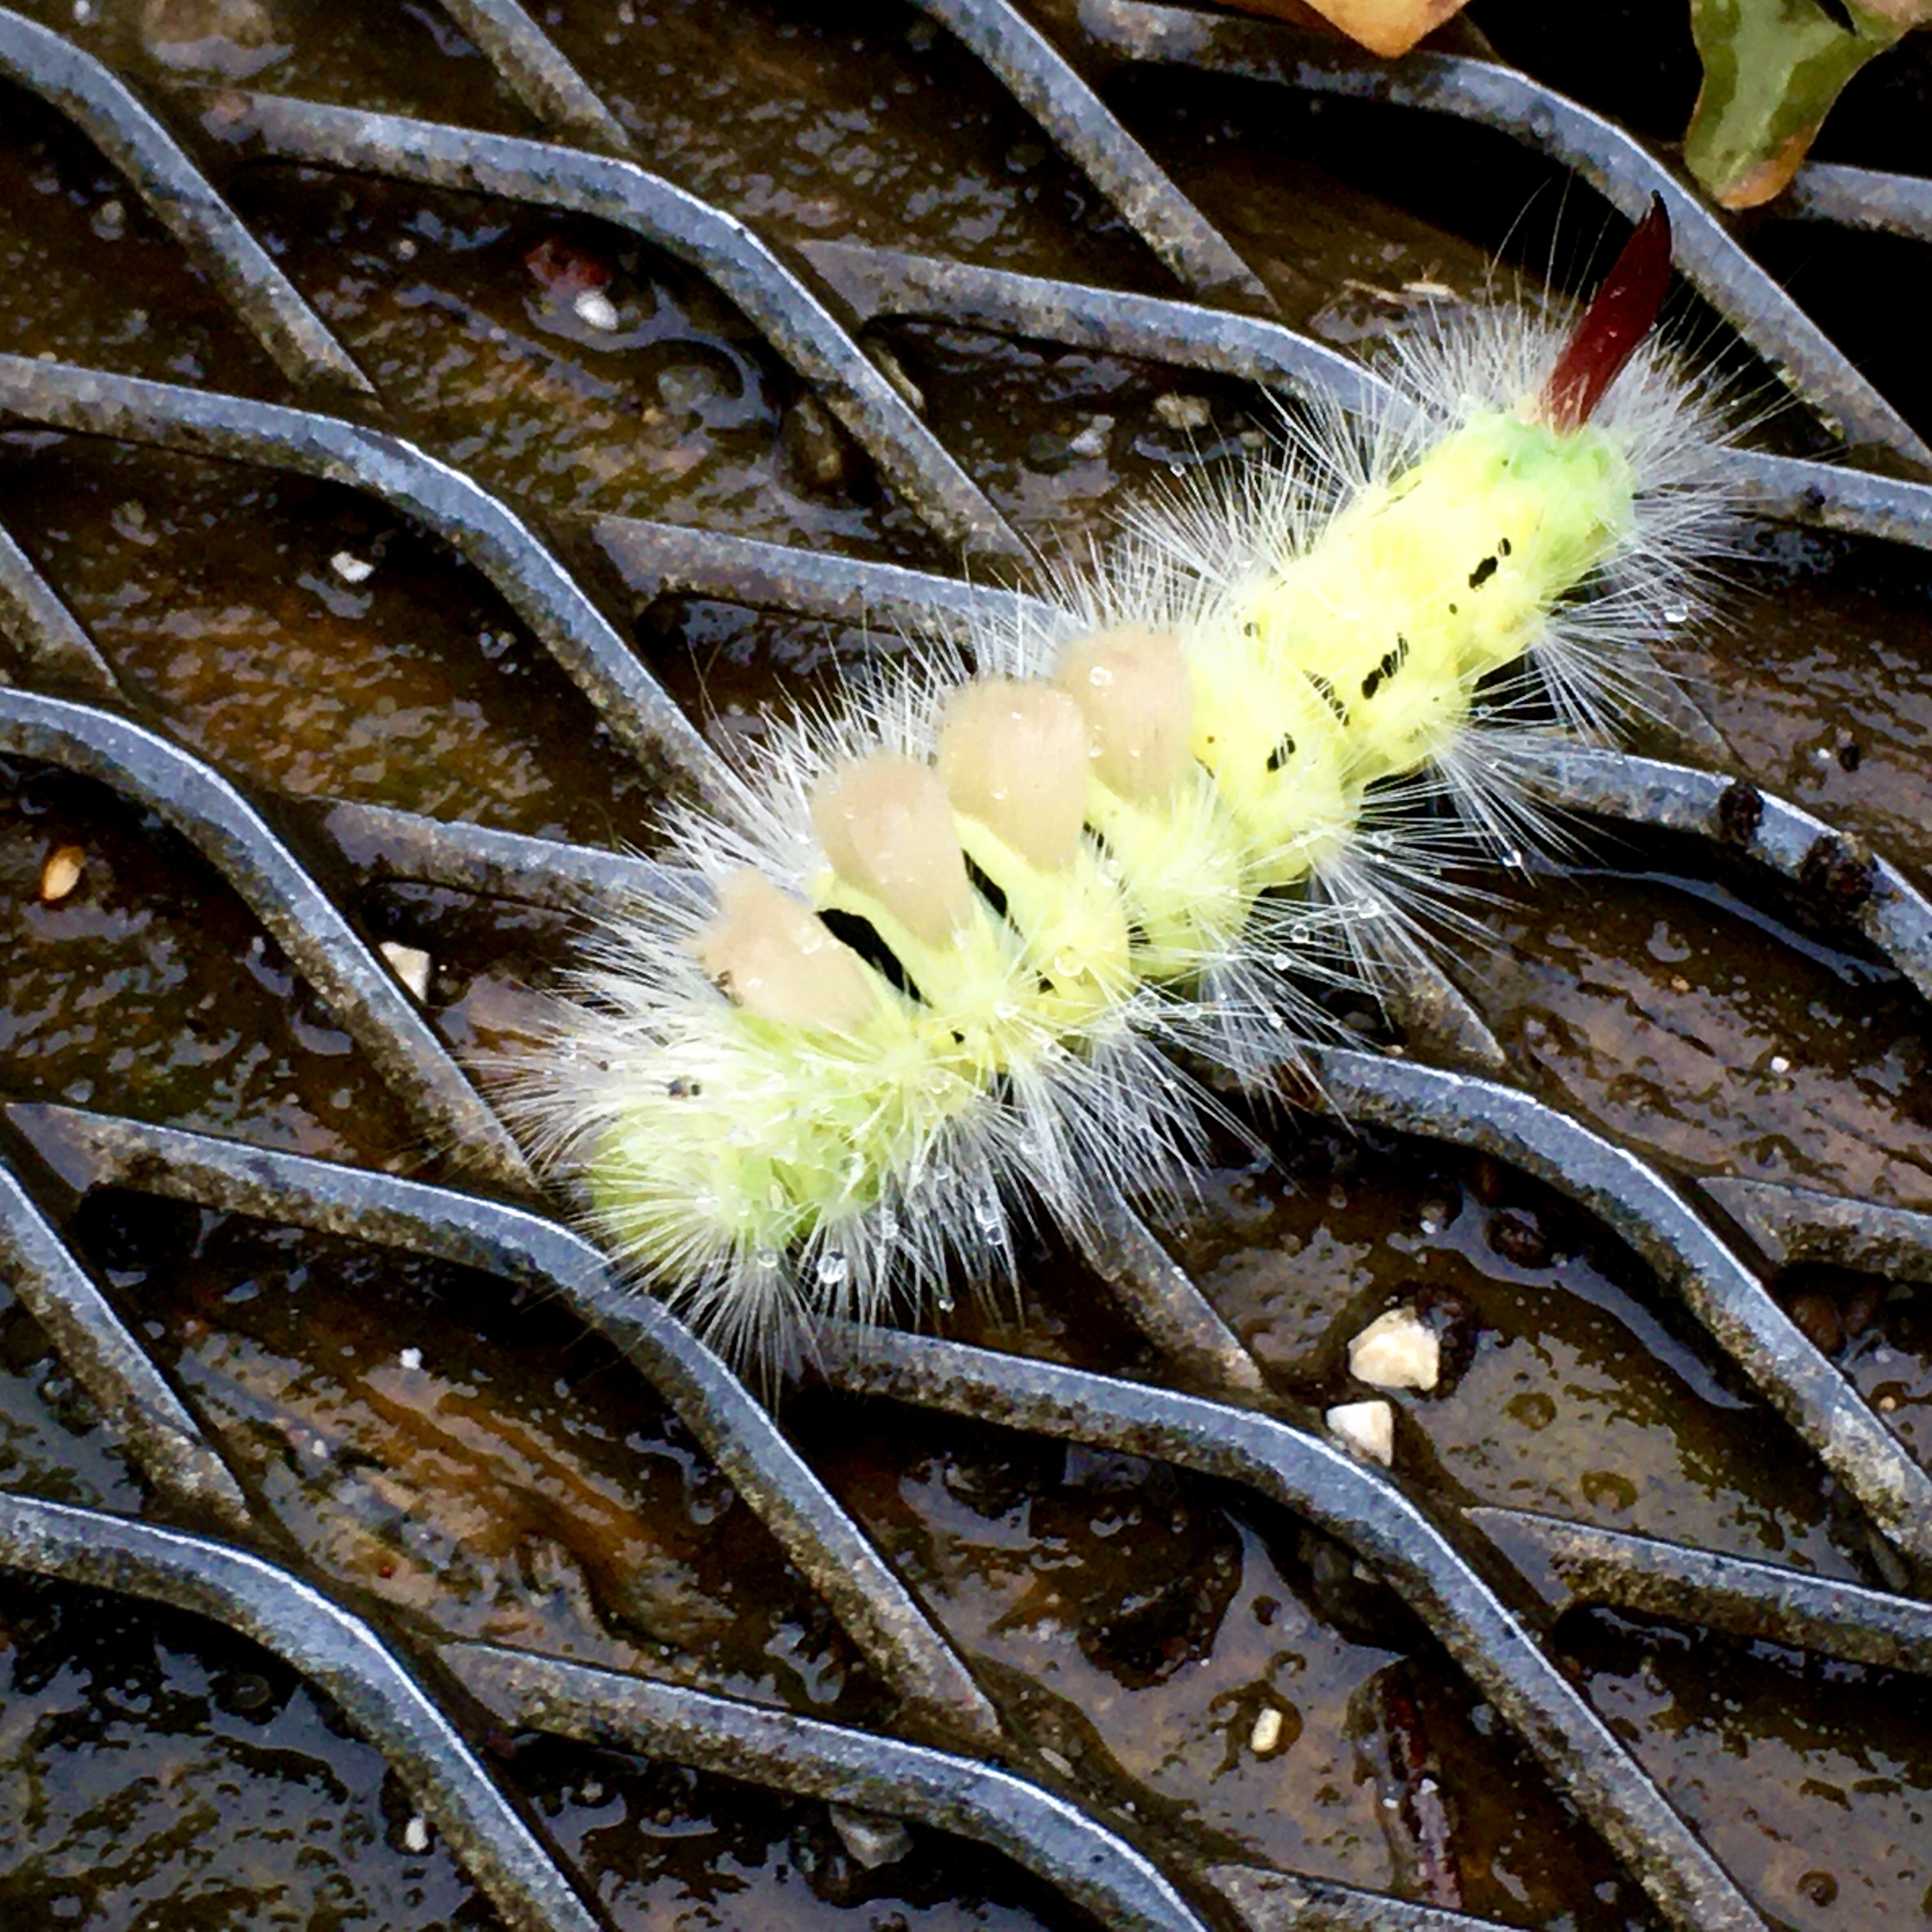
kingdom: Animalia
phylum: Arthropoda
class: Insecta
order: Lepidoptera
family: Erebidae
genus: Calliteara
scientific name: Calliteara pudibunda
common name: Bøgenonne
